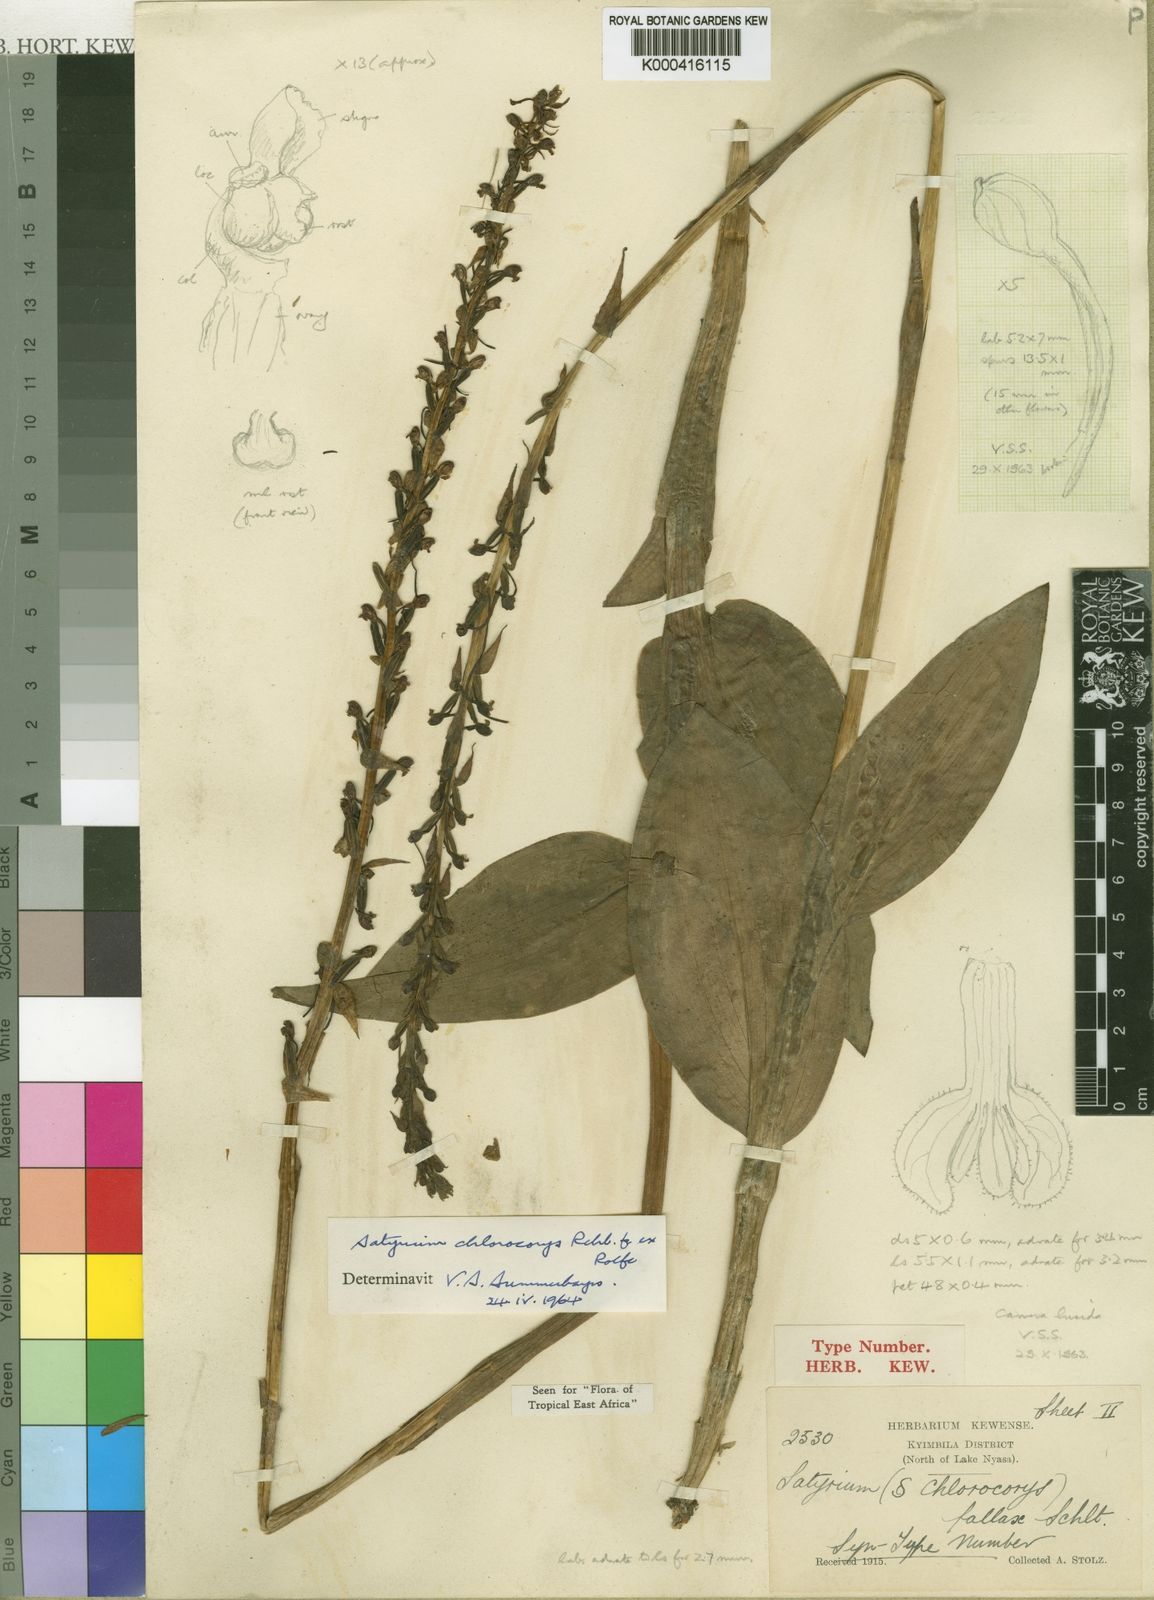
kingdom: Plantae
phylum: Tracheophyta
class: Liliopsida
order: Asparagales
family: Orchidaceae
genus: Satyrium
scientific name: Satyrium chlorocorys
